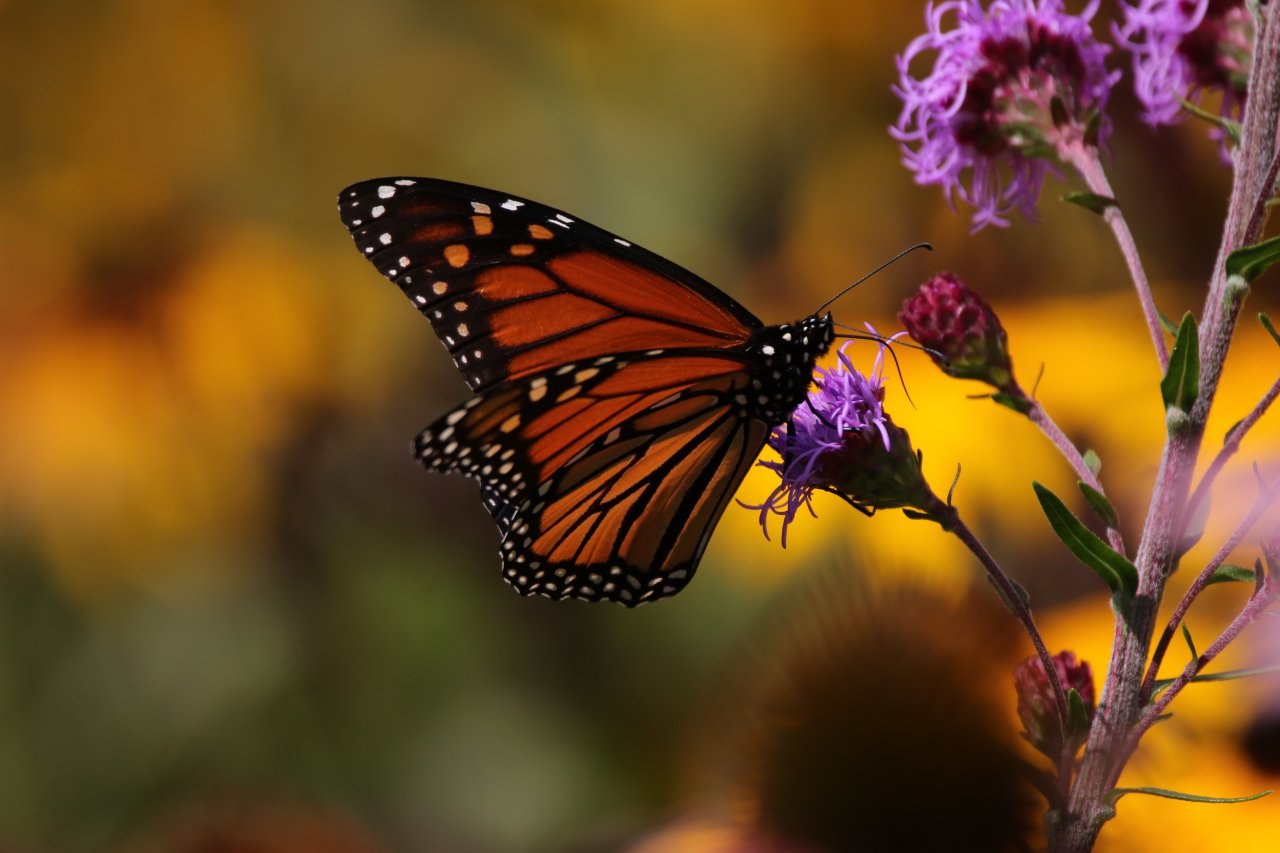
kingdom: Animalia
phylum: Arthropoda
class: Insecta
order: Lepidoptera
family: Nymphalidae
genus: Danaus
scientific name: Danaus plexippus
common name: Monarch
